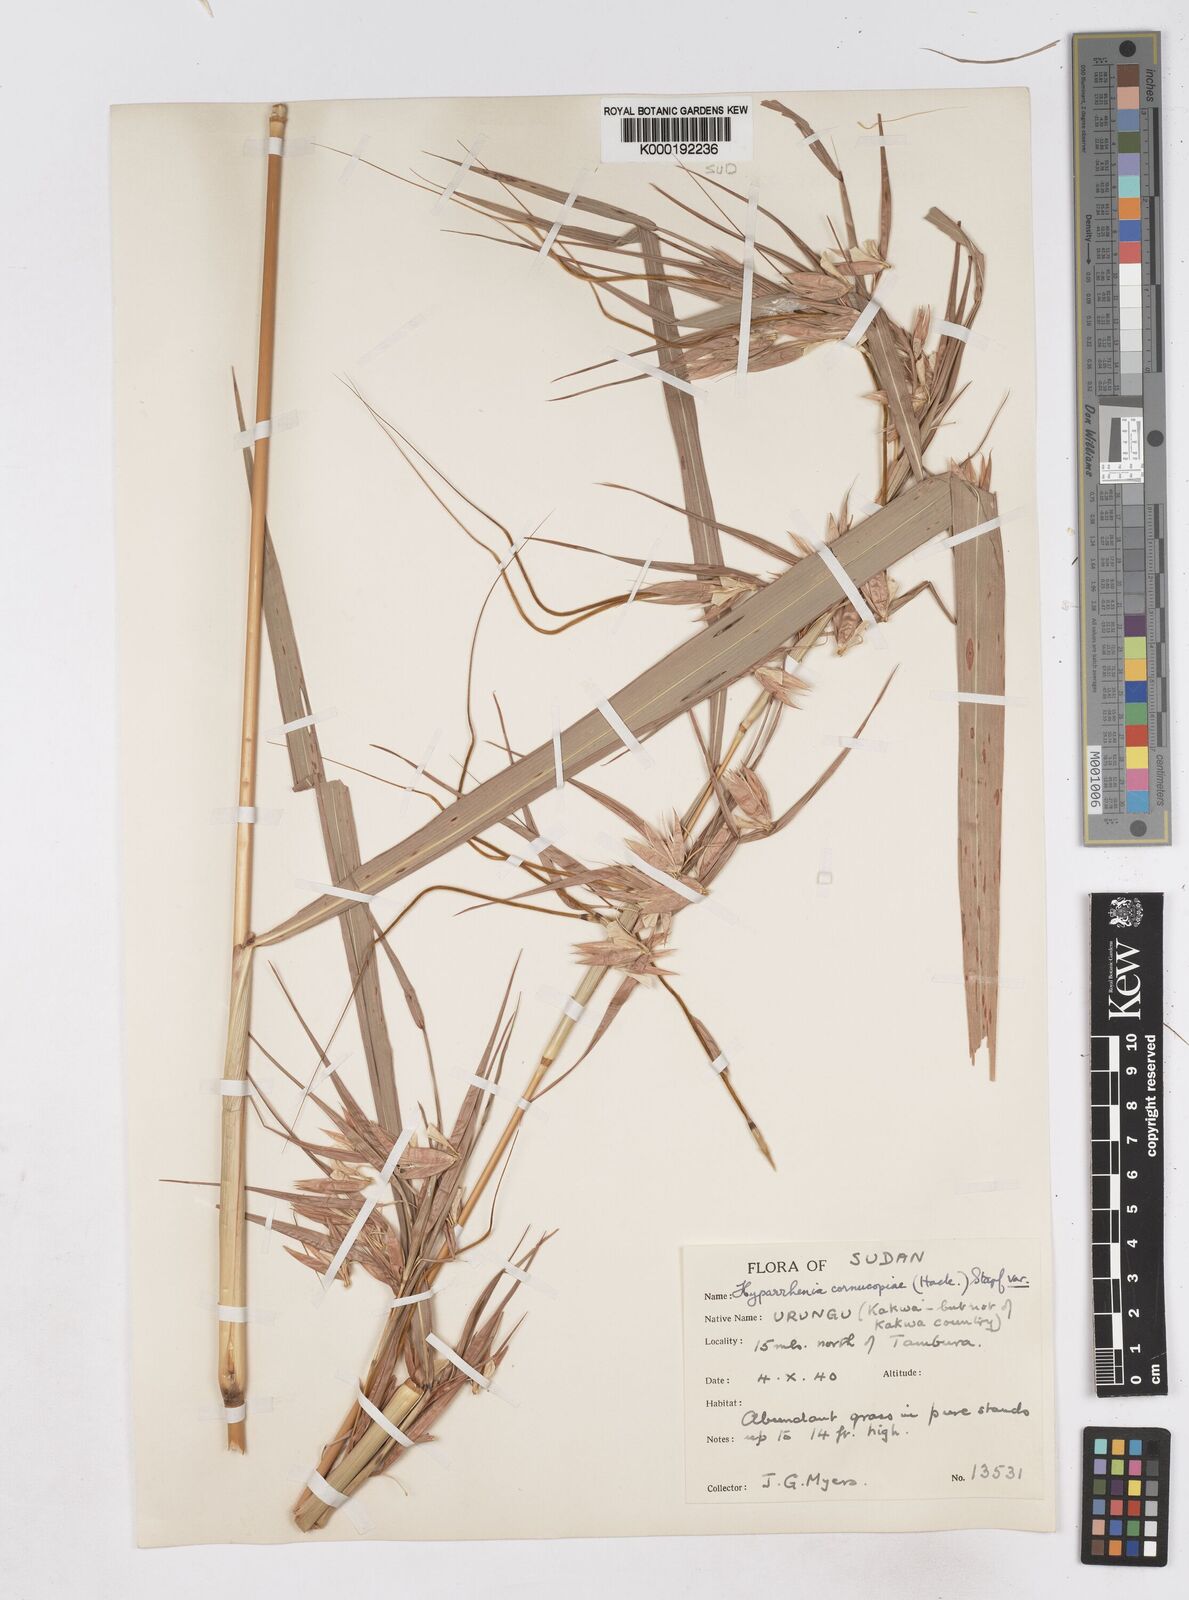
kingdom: Plantae
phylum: Tracheophyta
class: Liliopsida
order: Poales
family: Poaceae
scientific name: Poaceae
